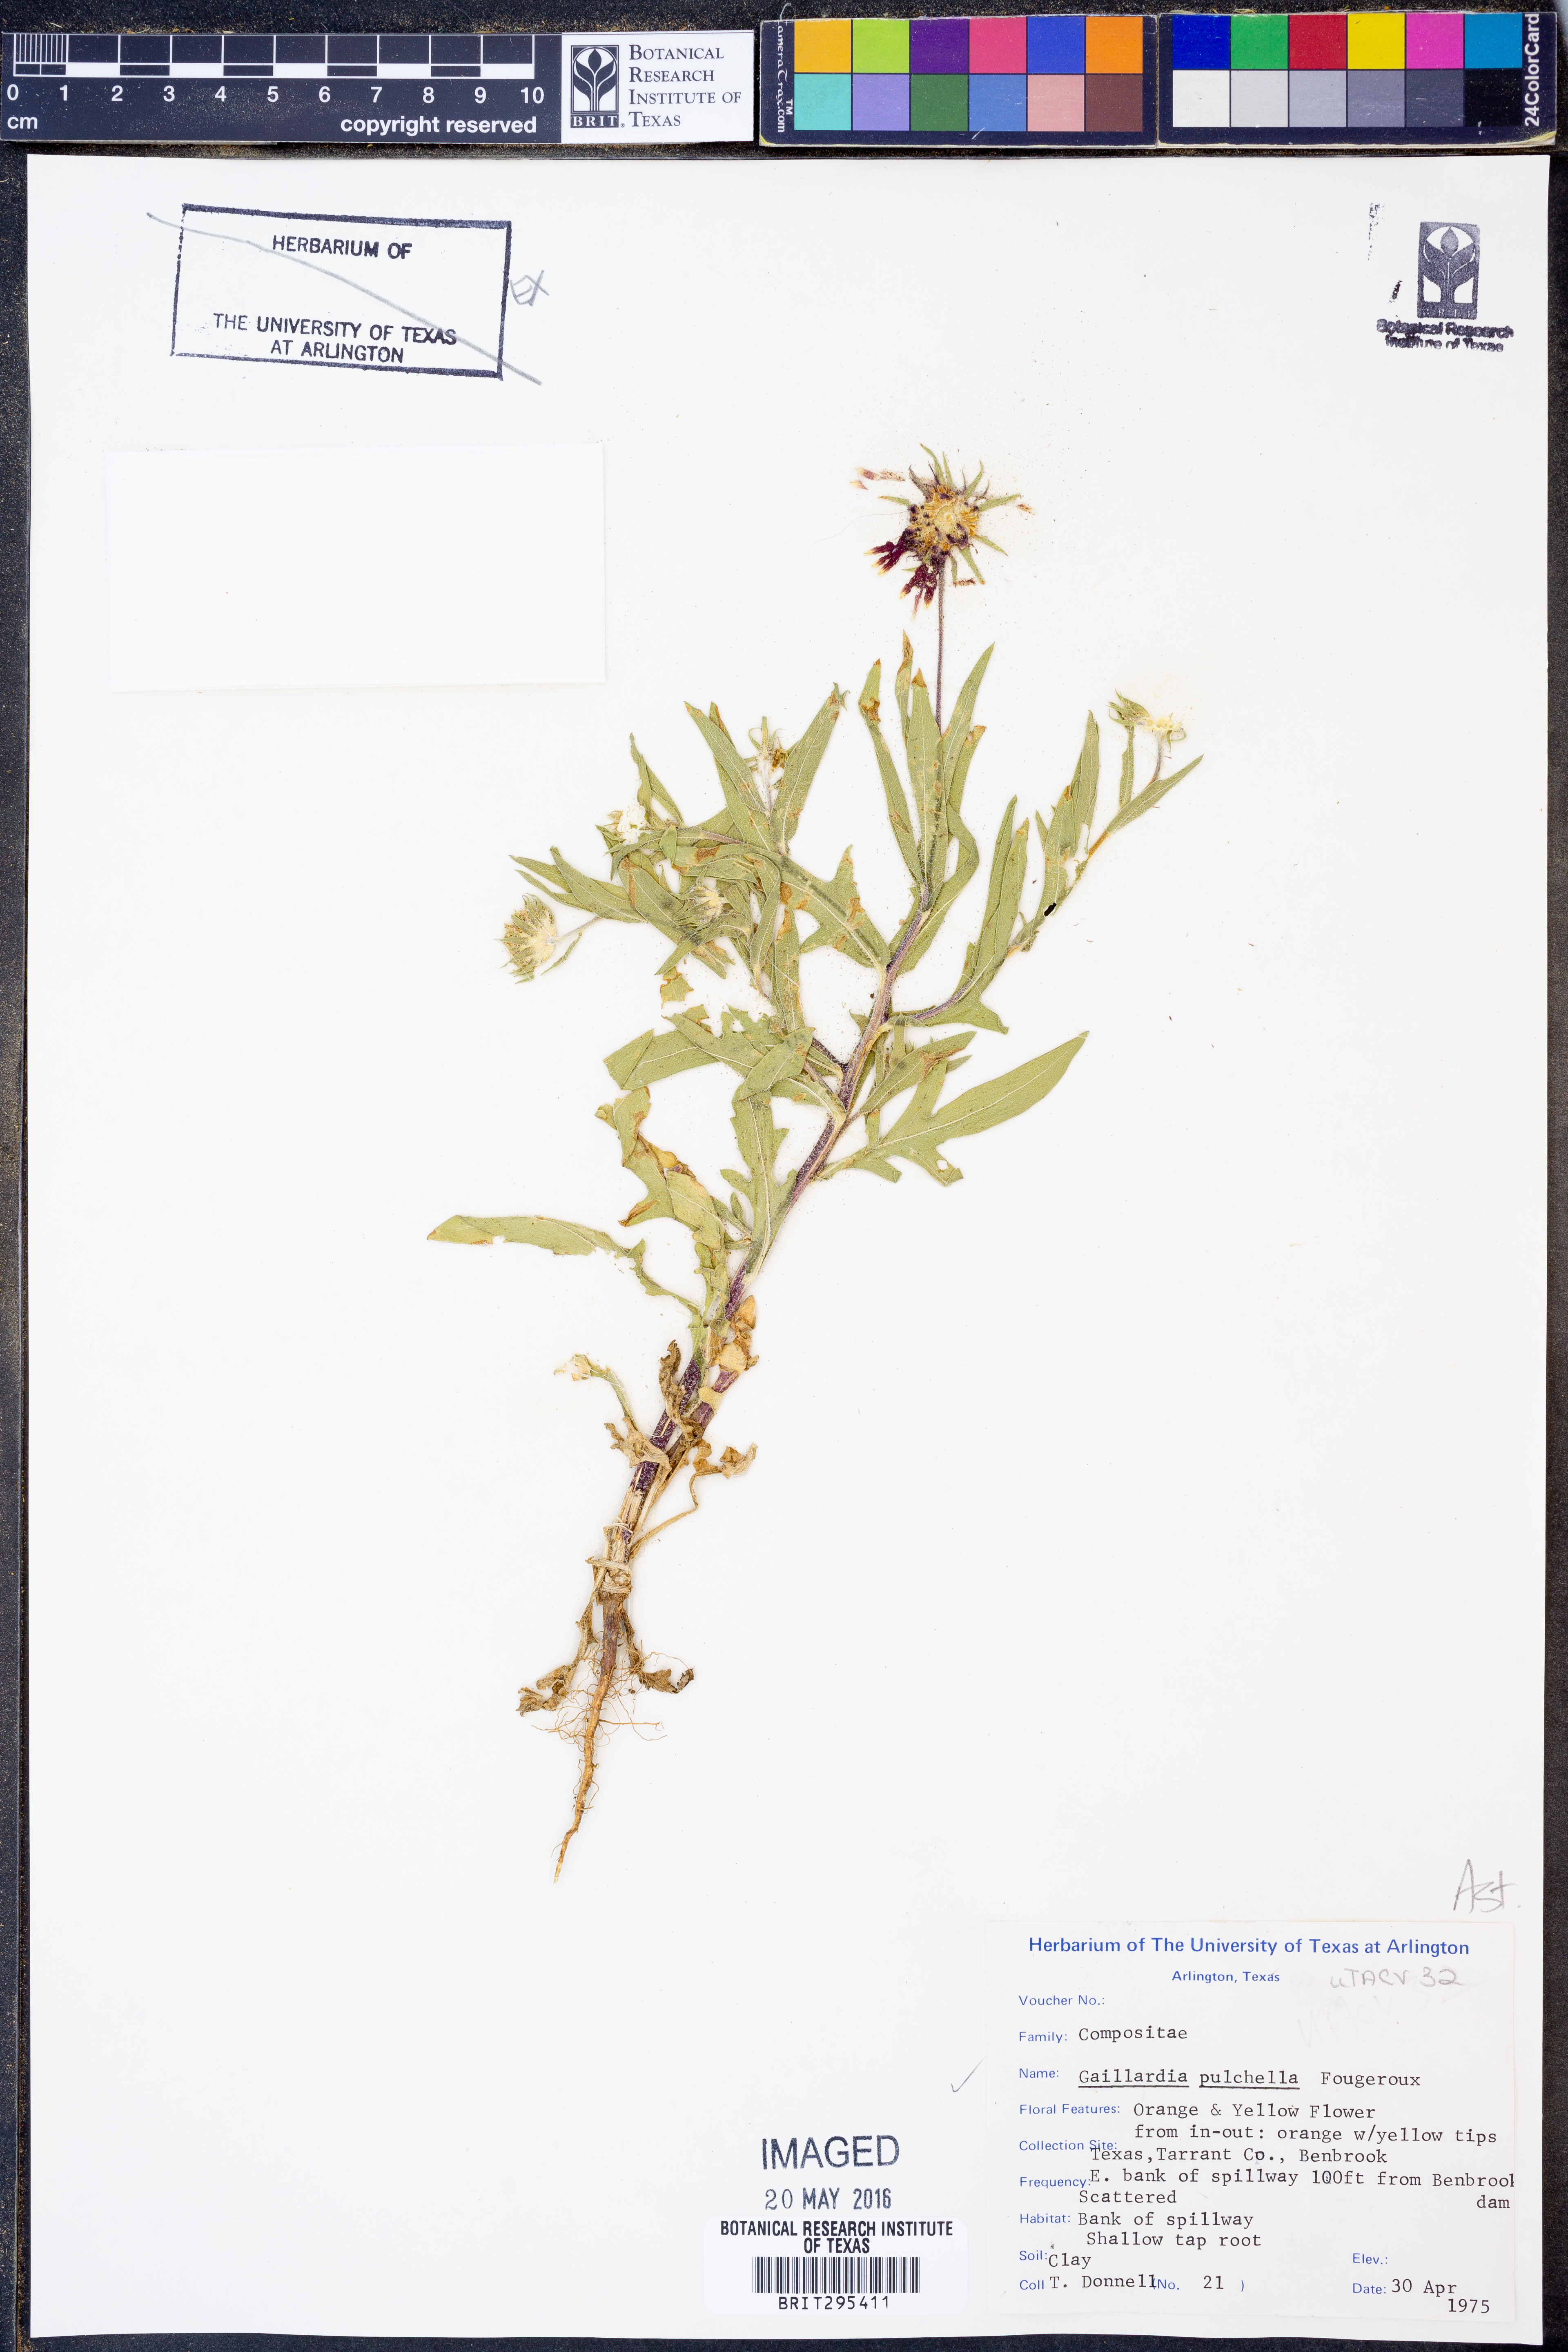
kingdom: Plantae
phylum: Tracheophyta
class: Magnoliopsida
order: Asterales
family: Asteraceae
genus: Gaillardia
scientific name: Gaillardia pulchella
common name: Firewheel
